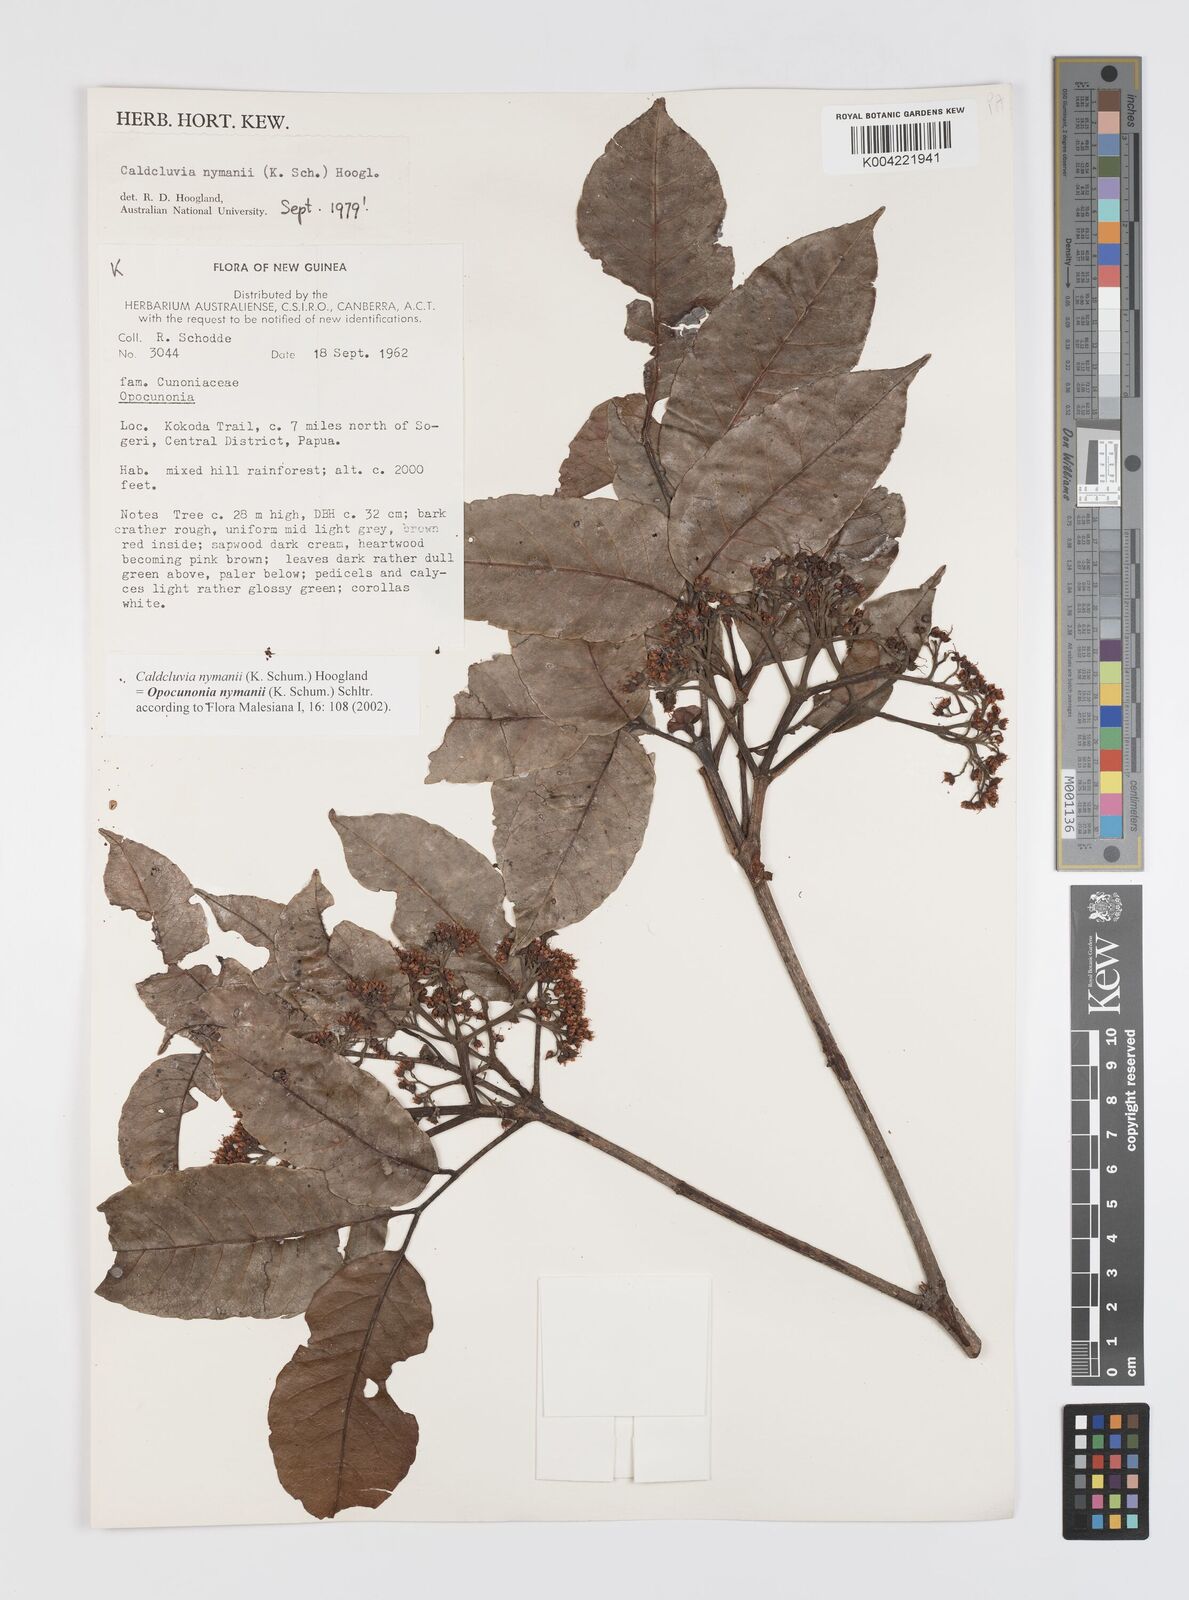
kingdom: Plantae
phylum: Tracheophyta
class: Magnoliopsida
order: Oxalidales
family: Cunoniaceae
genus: Opocunonia
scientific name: Opocunonia nymanii
